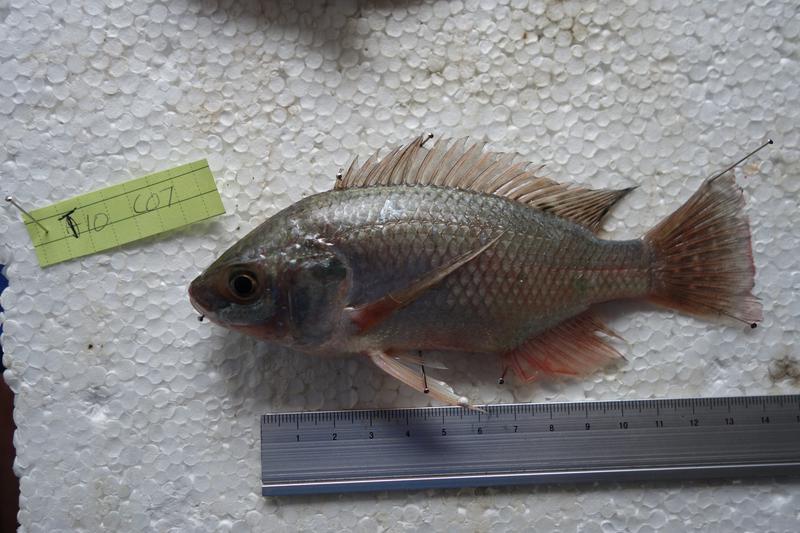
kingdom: Animalia
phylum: Chordata
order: Perciformes
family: Cichlidae
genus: Oreochromis
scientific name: Oreochromis esculentus
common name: Carp
